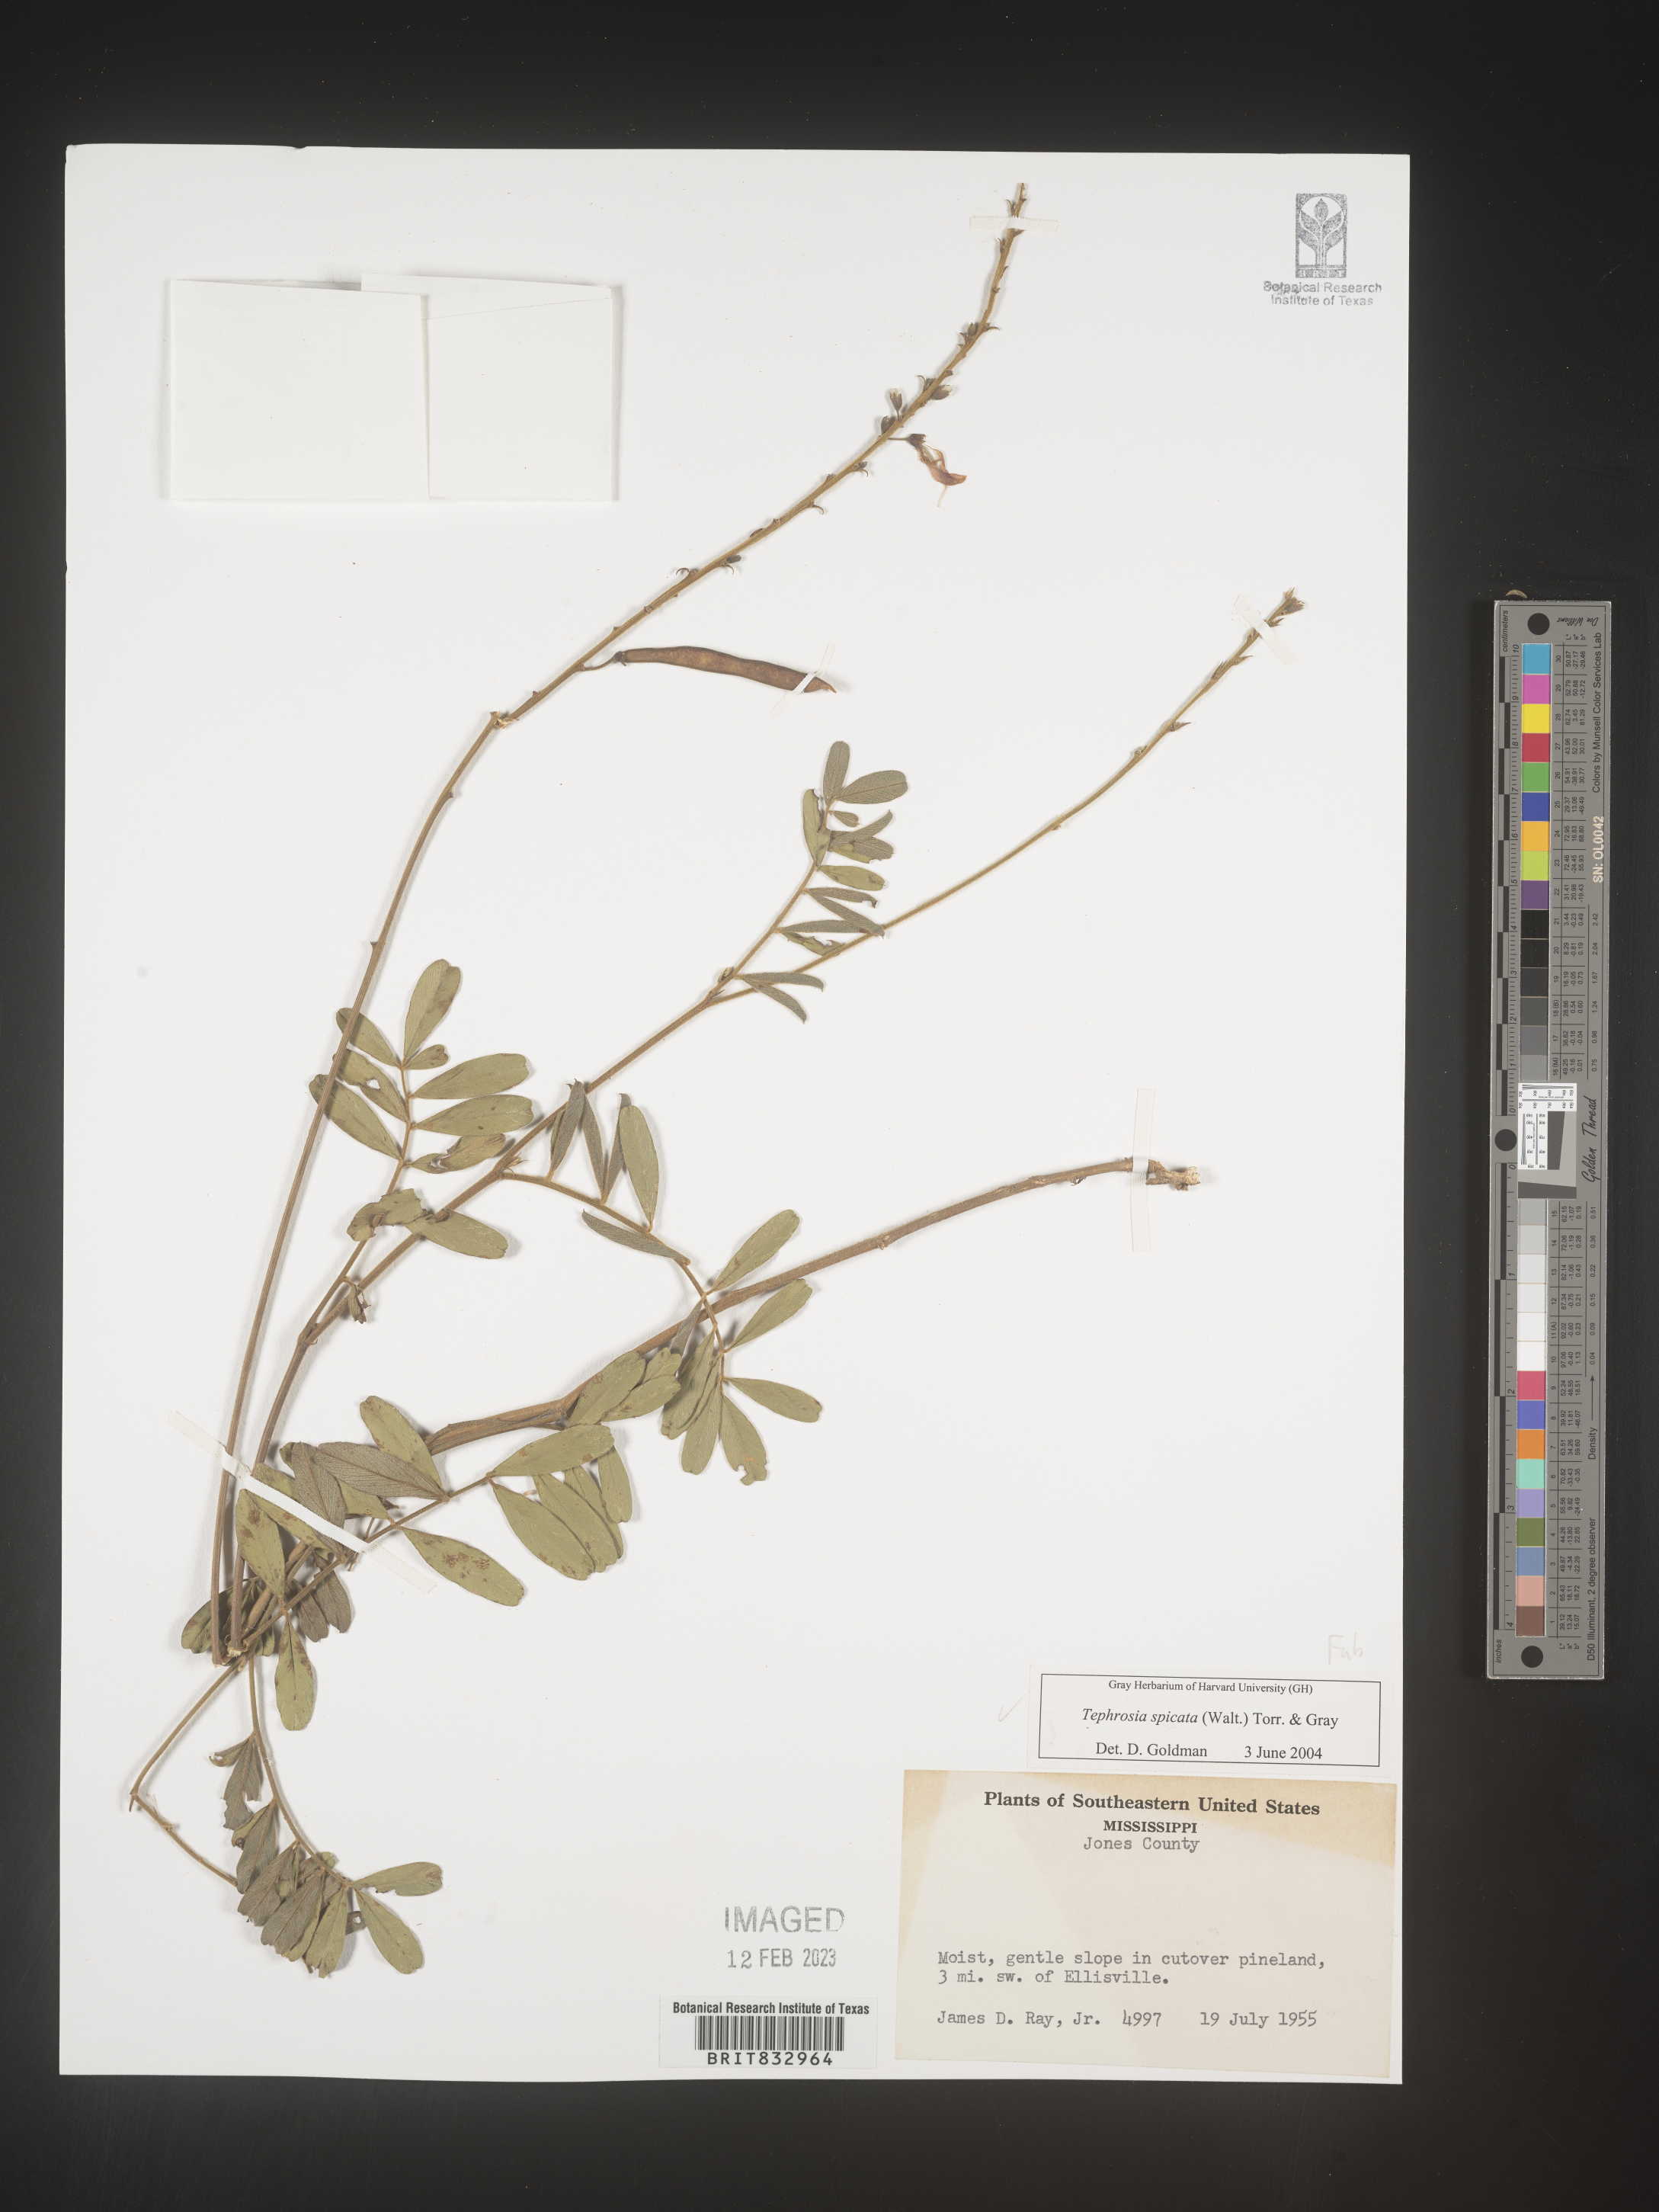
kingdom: Plantae
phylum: Tracheophyta
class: Magnoliopsida
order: Fabales
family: Fabaceae
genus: Tephrosia
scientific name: Tephrosia spicata
